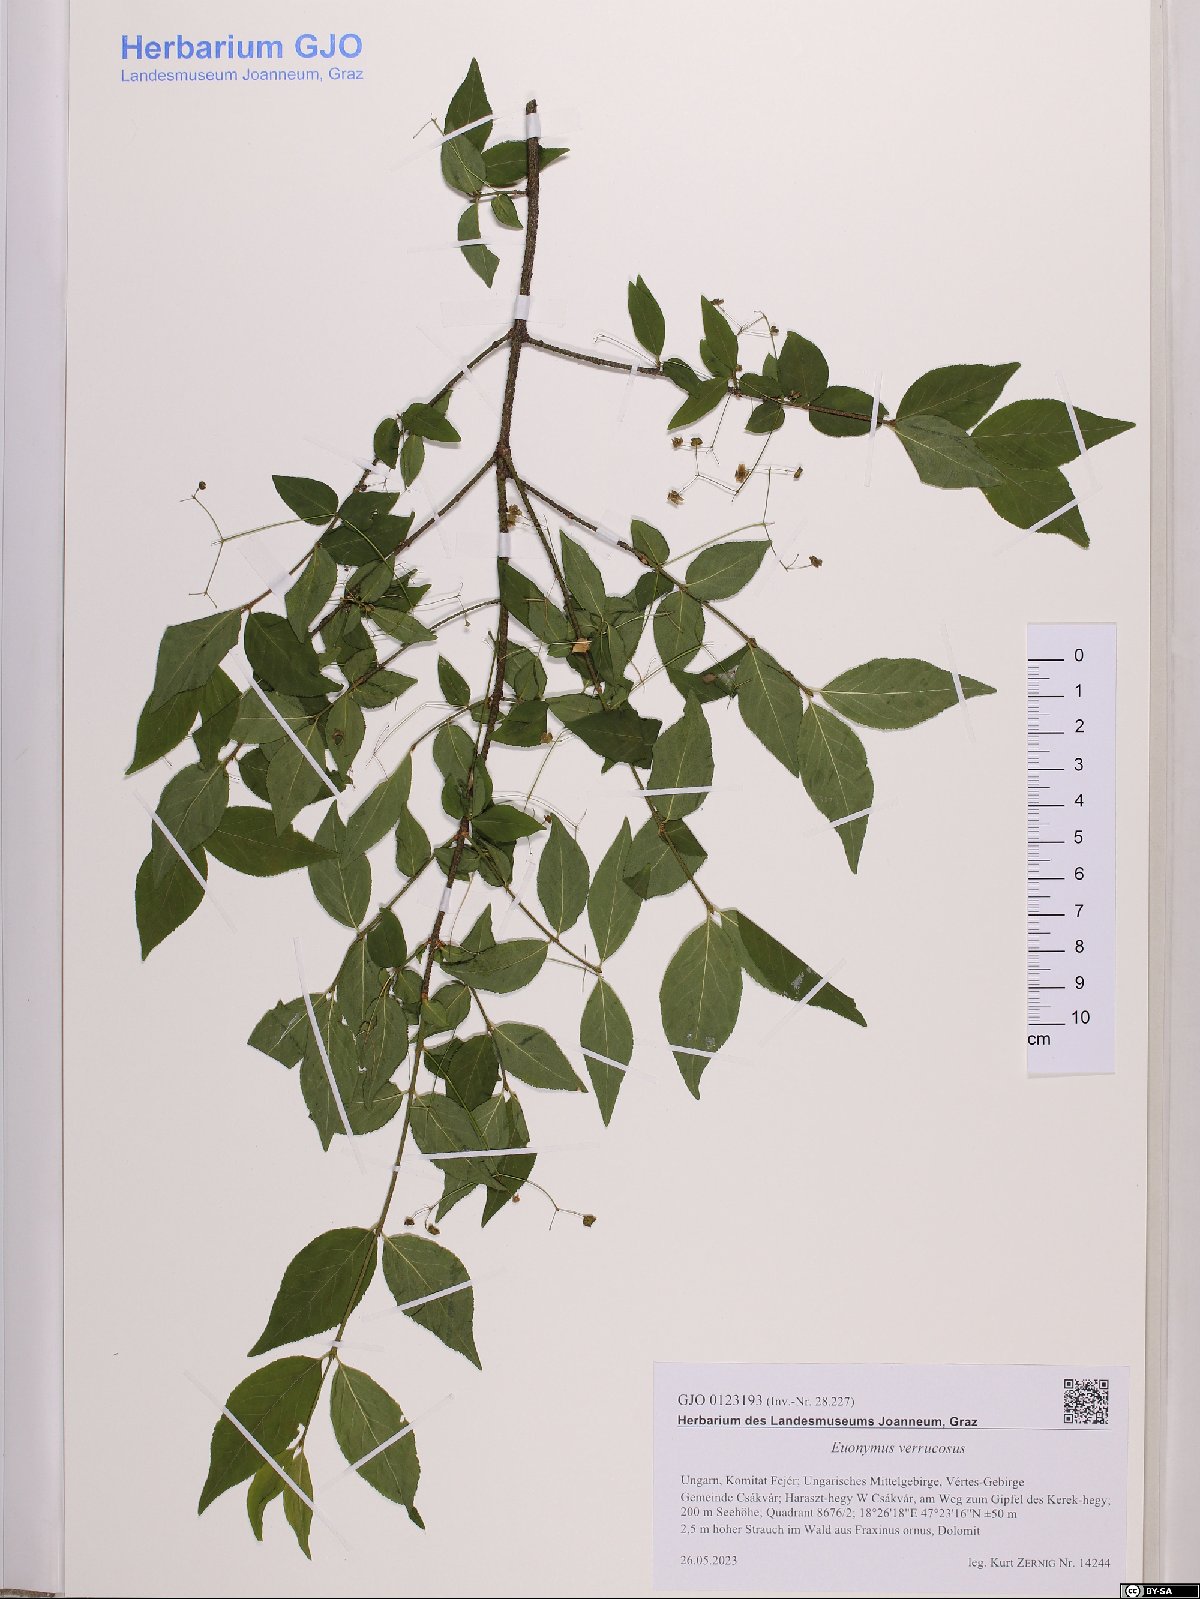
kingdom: Plantae
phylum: Tracheophyta
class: Magnoliopsida
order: Celastrales
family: Celastraceae
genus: Euonymus
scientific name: Euonymus verrucosus
